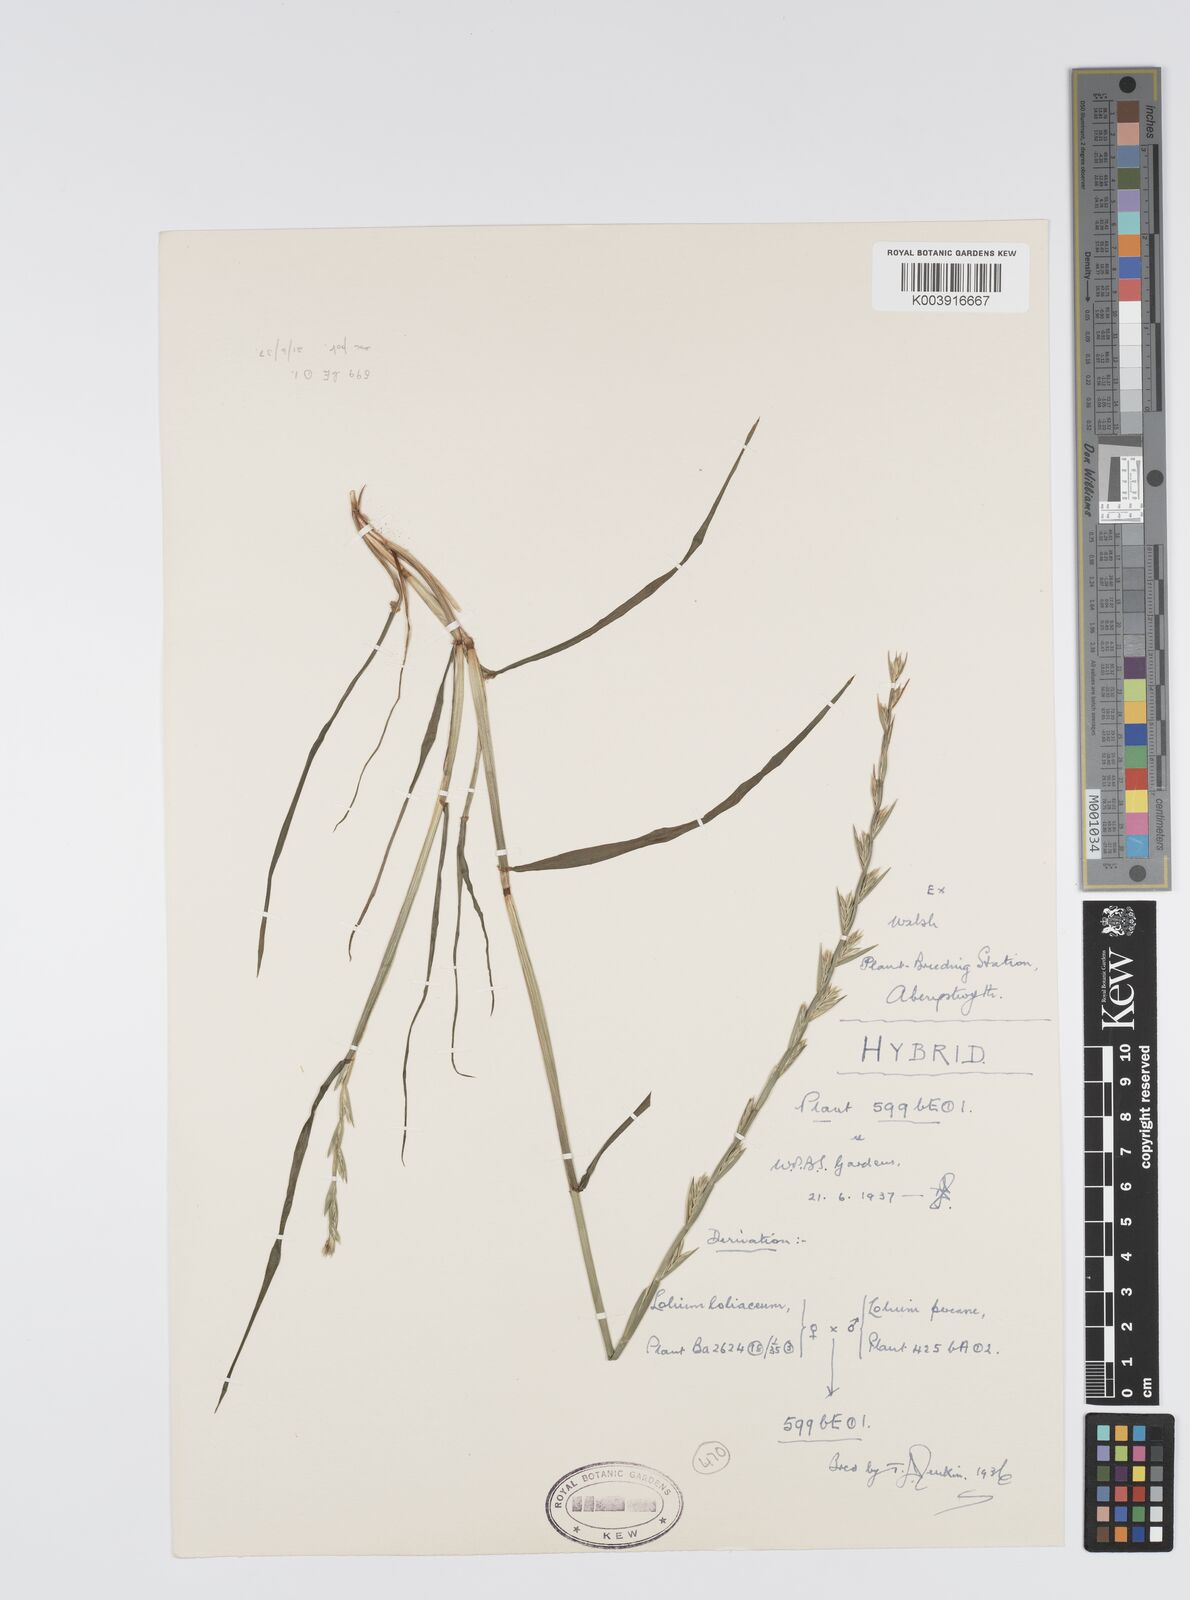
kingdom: Plantae
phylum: Tracheophyta
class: Liliopsida
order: Poales
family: Poaceae
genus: Lolium
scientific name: Lolium perenne
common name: Perennial ryegrass
